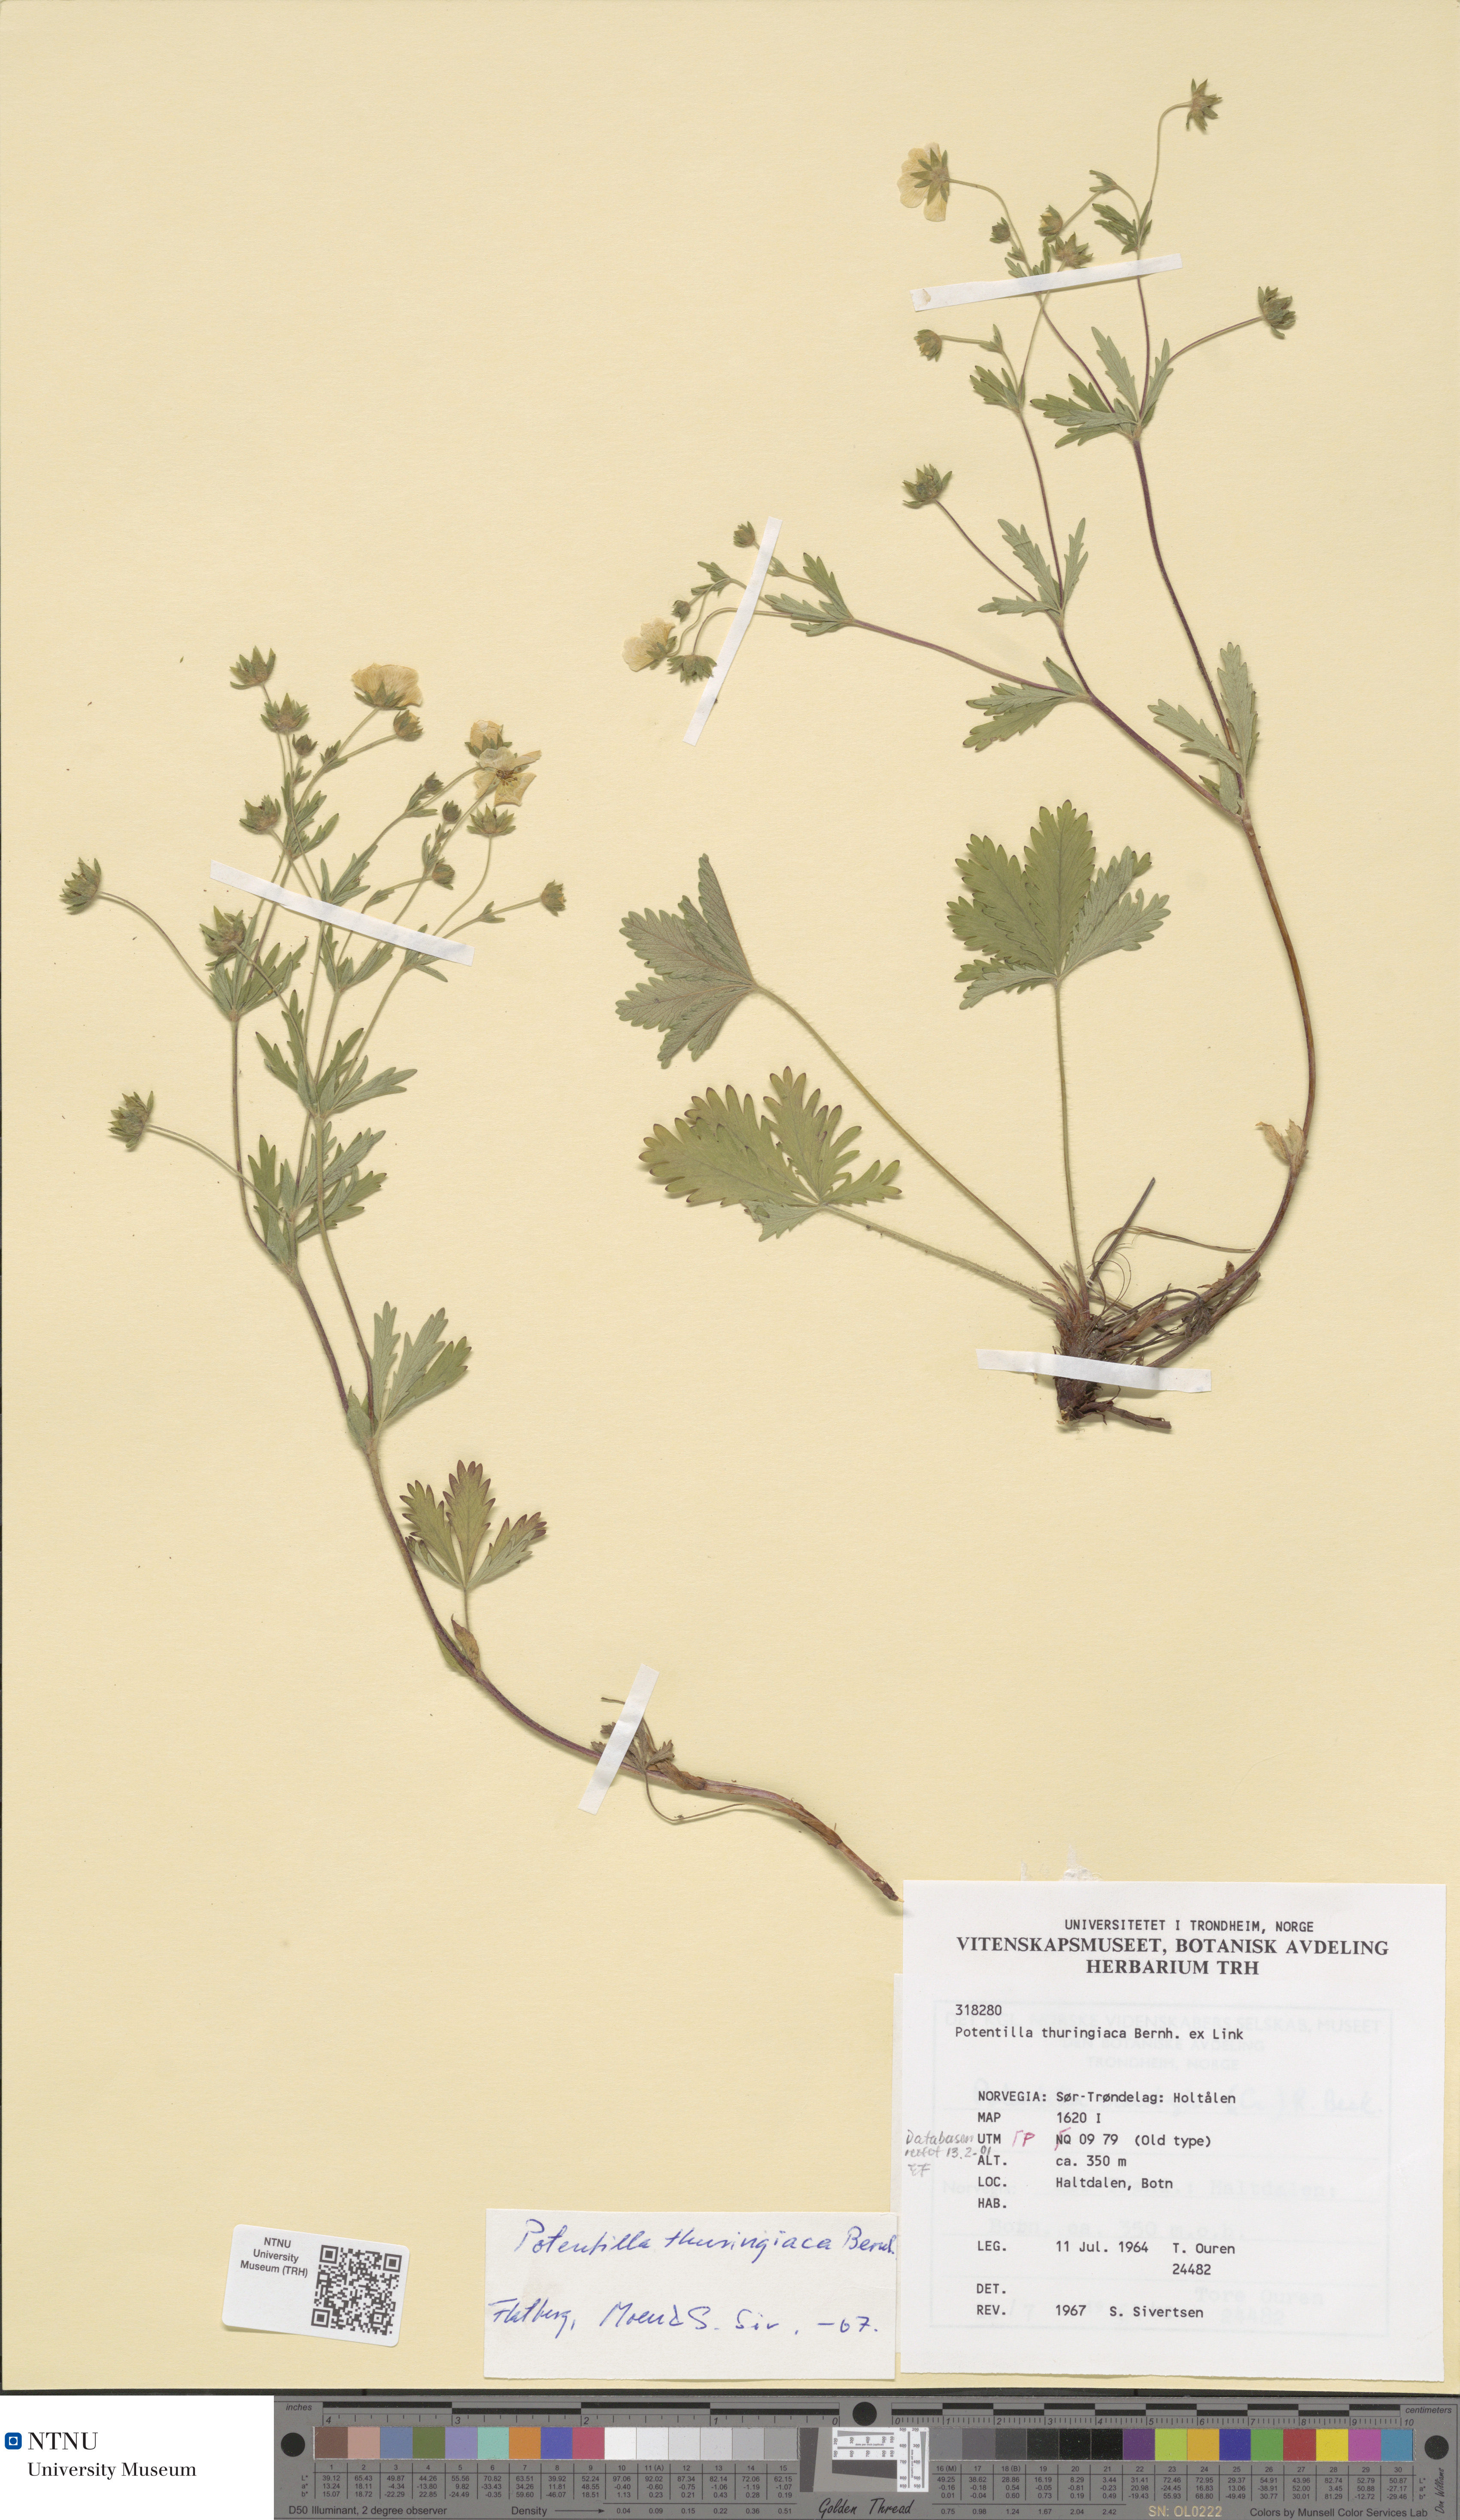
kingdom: Plantae
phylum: Tracheophyta
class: Magnoliopsida
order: Rosales
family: Rosaceae
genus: Potentilla
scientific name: Potentilla thuringiaca
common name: European cinquefoil
